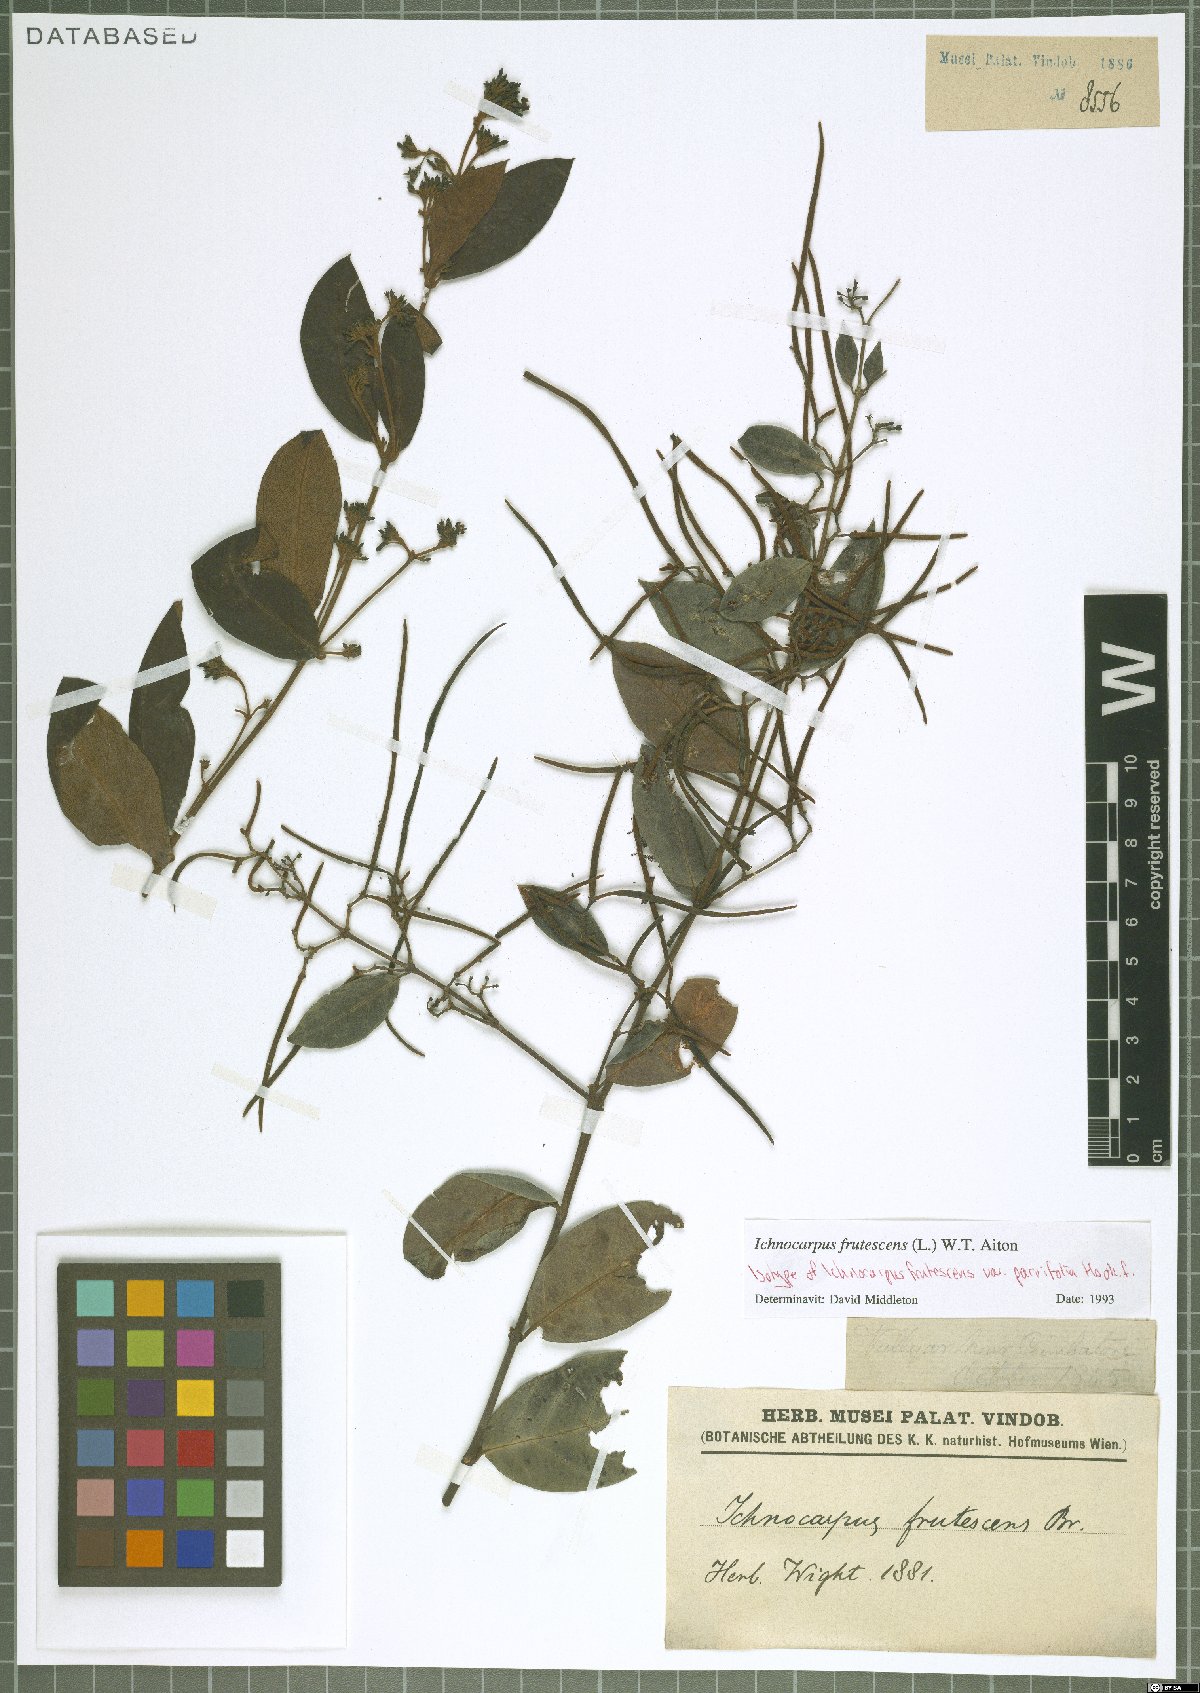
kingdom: Plantae
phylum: Tracheophyta
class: Magnoliopsida
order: Gentianales
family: Apocynaceae
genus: Ichnocarpus
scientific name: Ichnocarpus frutescens
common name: Ichnocarpus
